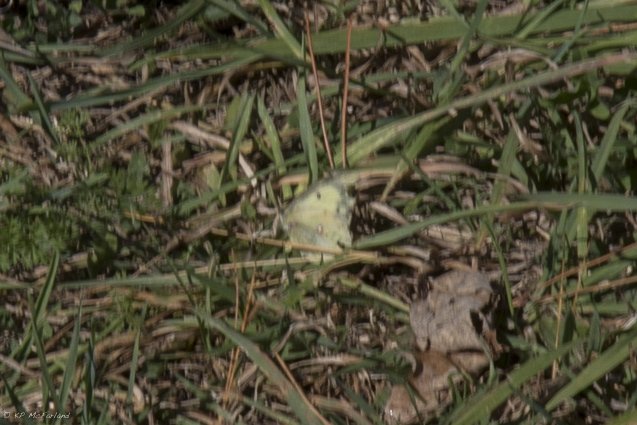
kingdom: Animalia
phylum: Arthropoda
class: Insecta
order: Lepidoptera
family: Pieridae
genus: Colias
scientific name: Colias philodice
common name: Clouded Sulphur
